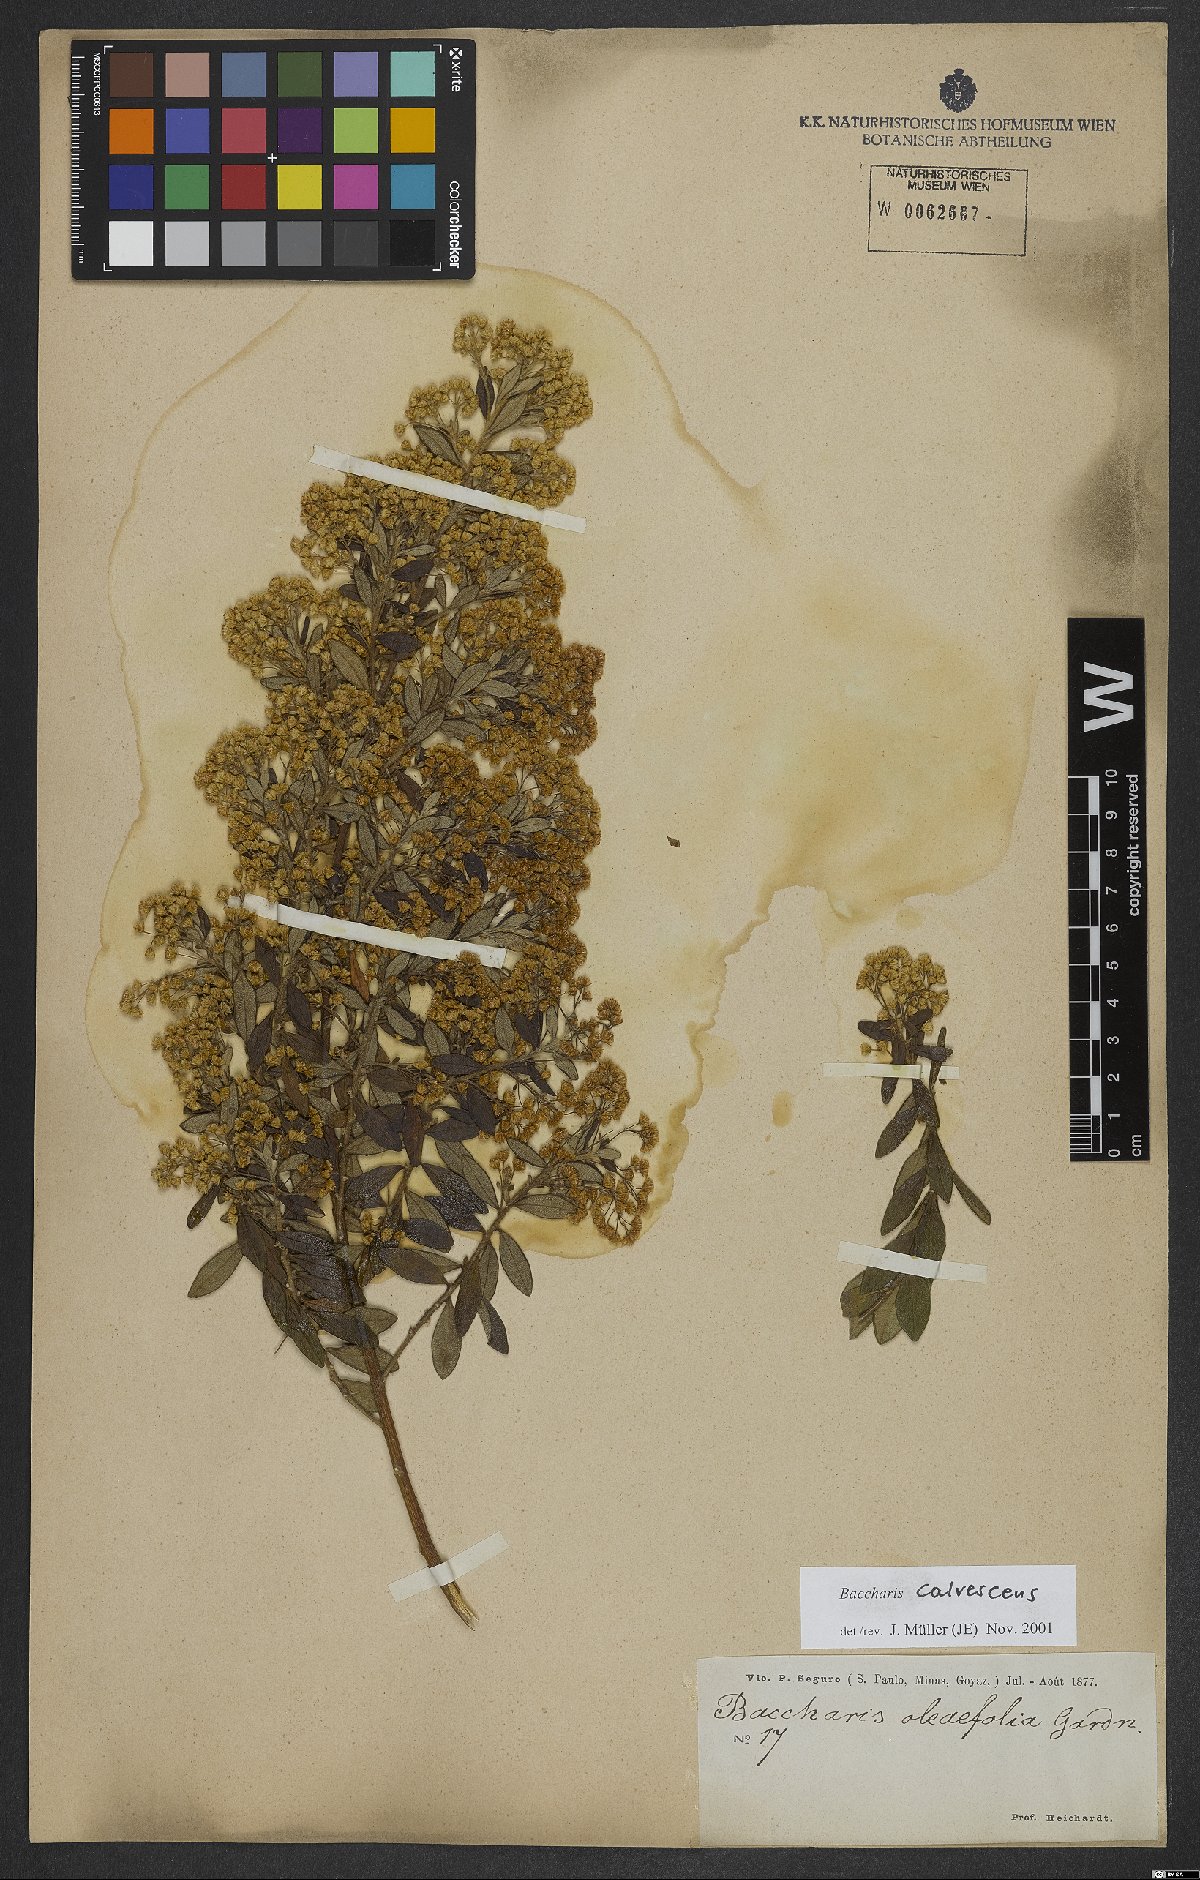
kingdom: Plantae
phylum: Tracheophyta
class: Magnoliopsida
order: Asterales
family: Asteraceae
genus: Baccharis
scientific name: Baccharis calvescens
